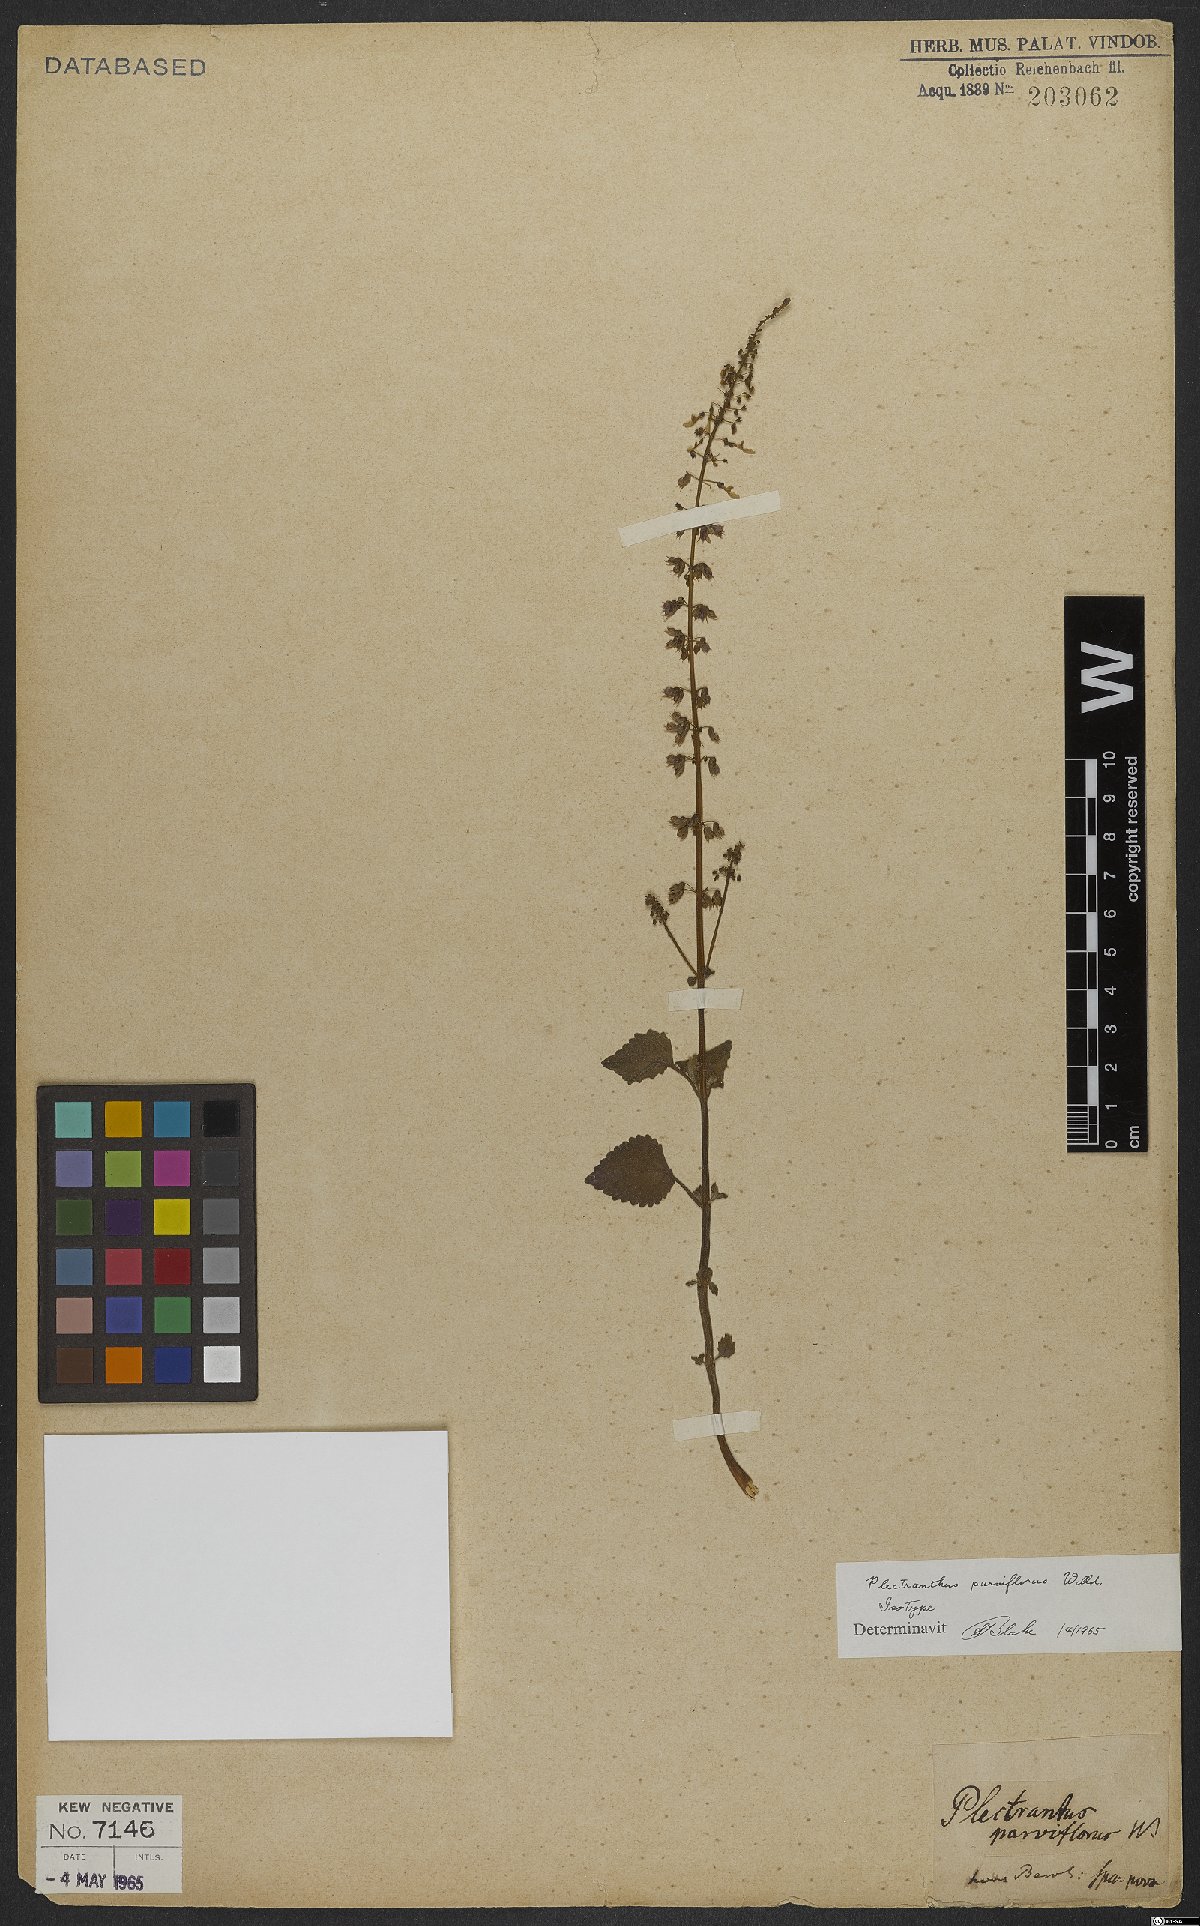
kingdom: Plantae
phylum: Tracheophyta
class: Magnoliopsida
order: Lamiales
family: Lamiaceae
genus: Coleus
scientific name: Coleus australis
